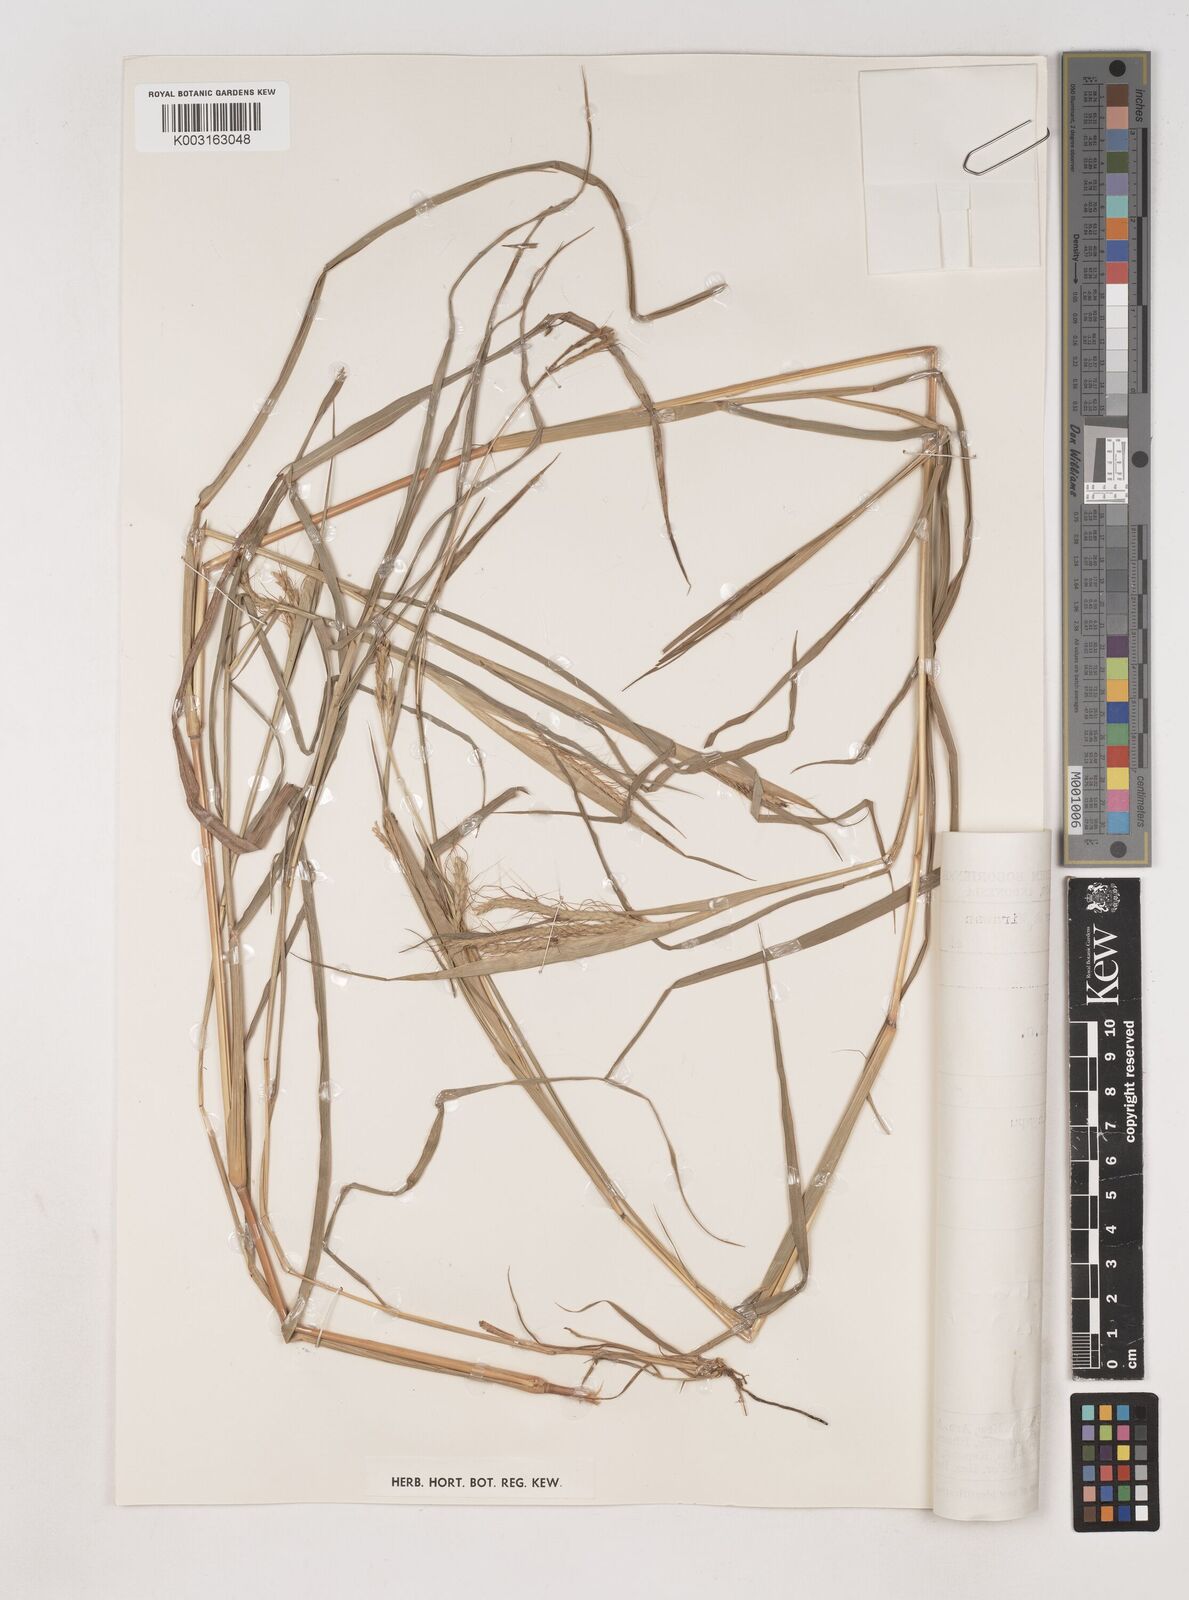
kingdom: Plantae
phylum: Tracheophyta
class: Liliopsida
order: Poales
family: Poaceae
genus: Dichanthium
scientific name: Dichanthium aristatum
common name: Angleton bluestem
